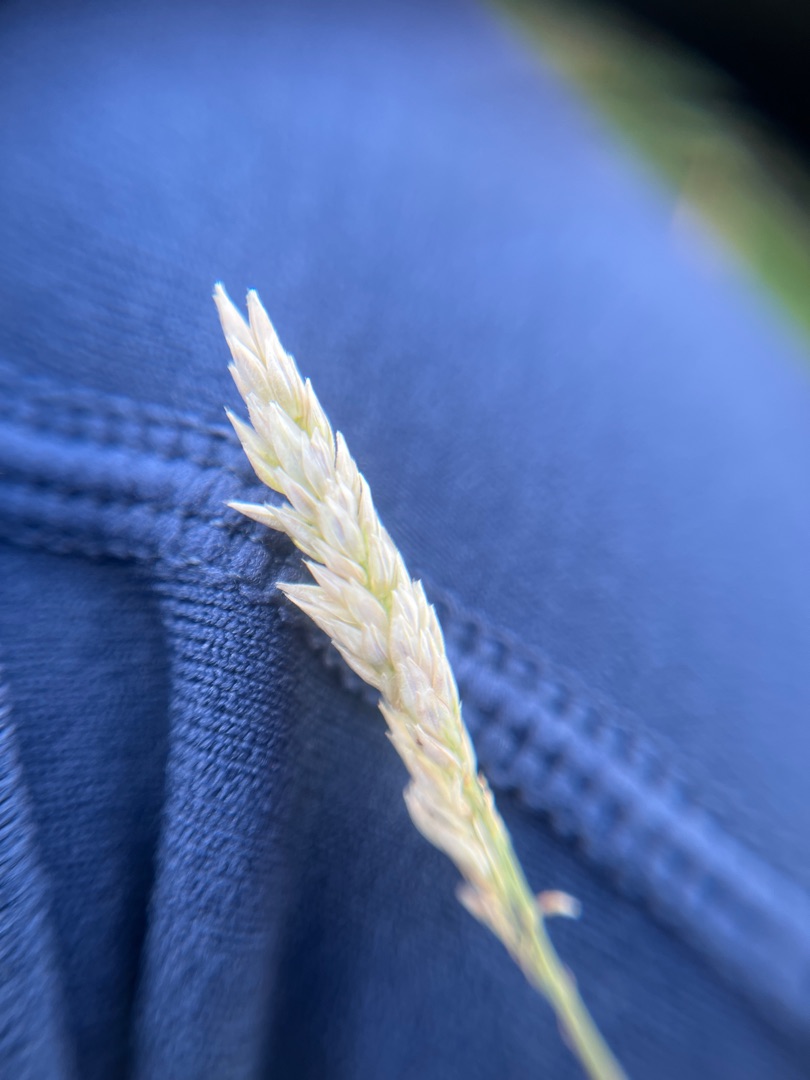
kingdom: Plantae
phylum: Tracheophyta
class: Liliopsida
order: Poales
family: Poaceae
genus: Holcus
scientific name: Holcus lanatus
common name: Fløjlsgræs
